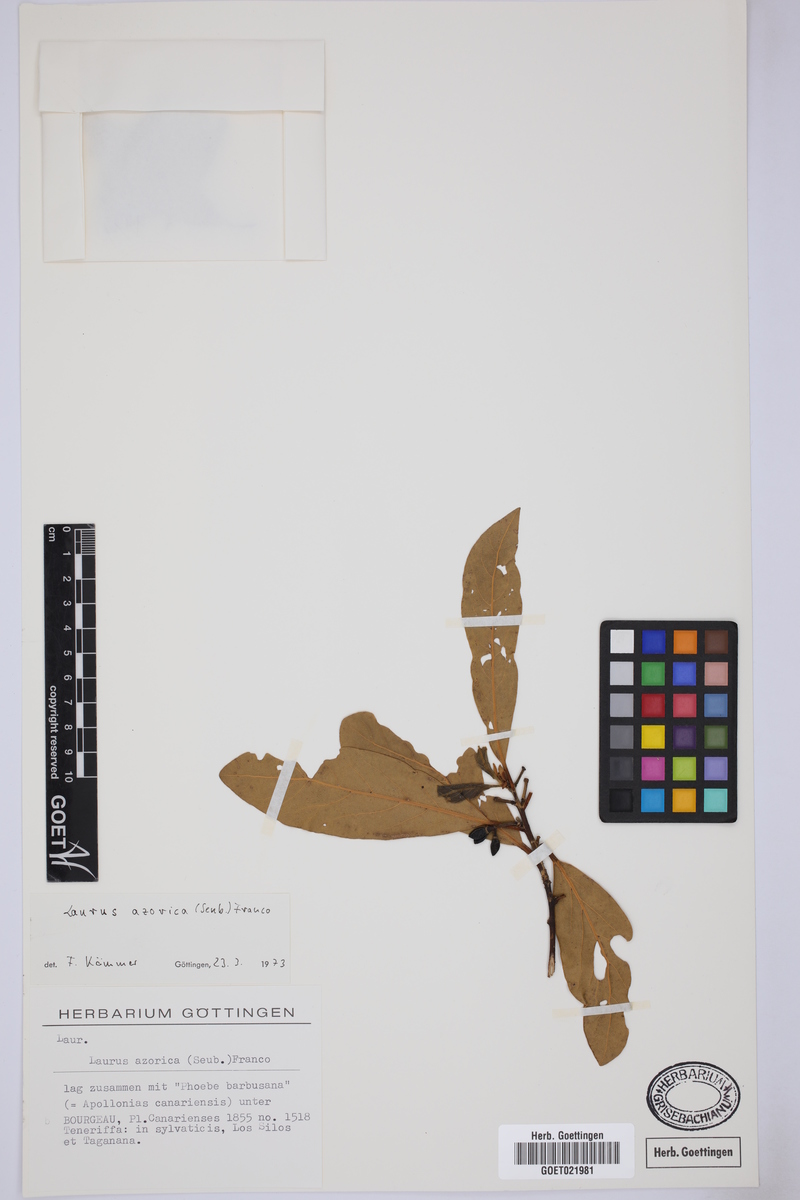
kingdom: Plantae
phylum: Tracheophyta
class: Magnoliopsida
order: Laurales
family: Lauraceae
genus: Laurus
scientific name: Laurus azorica
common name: Macaronesian laurel
